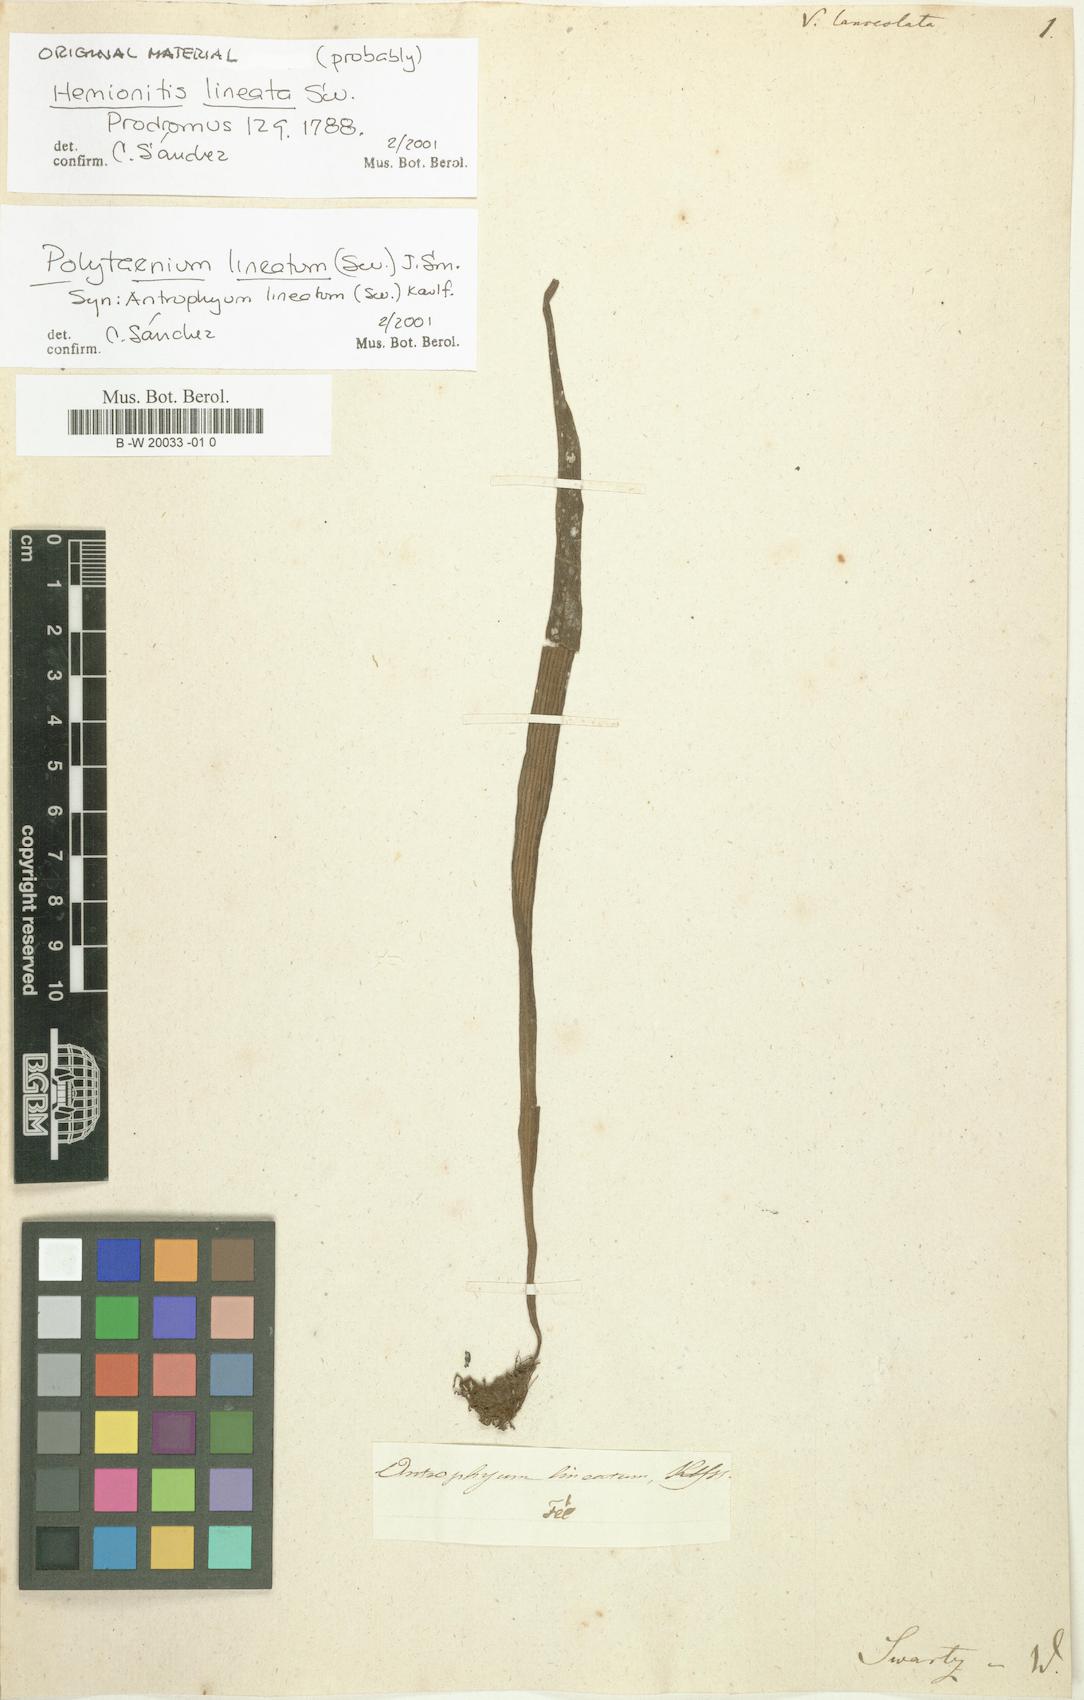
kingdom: Plantae
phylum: Tracheophyta
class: Polypodiopsida
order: Polypodiales
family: Polypodiaceae
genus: Pleopeltis
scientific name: Pleopeltis marginata
